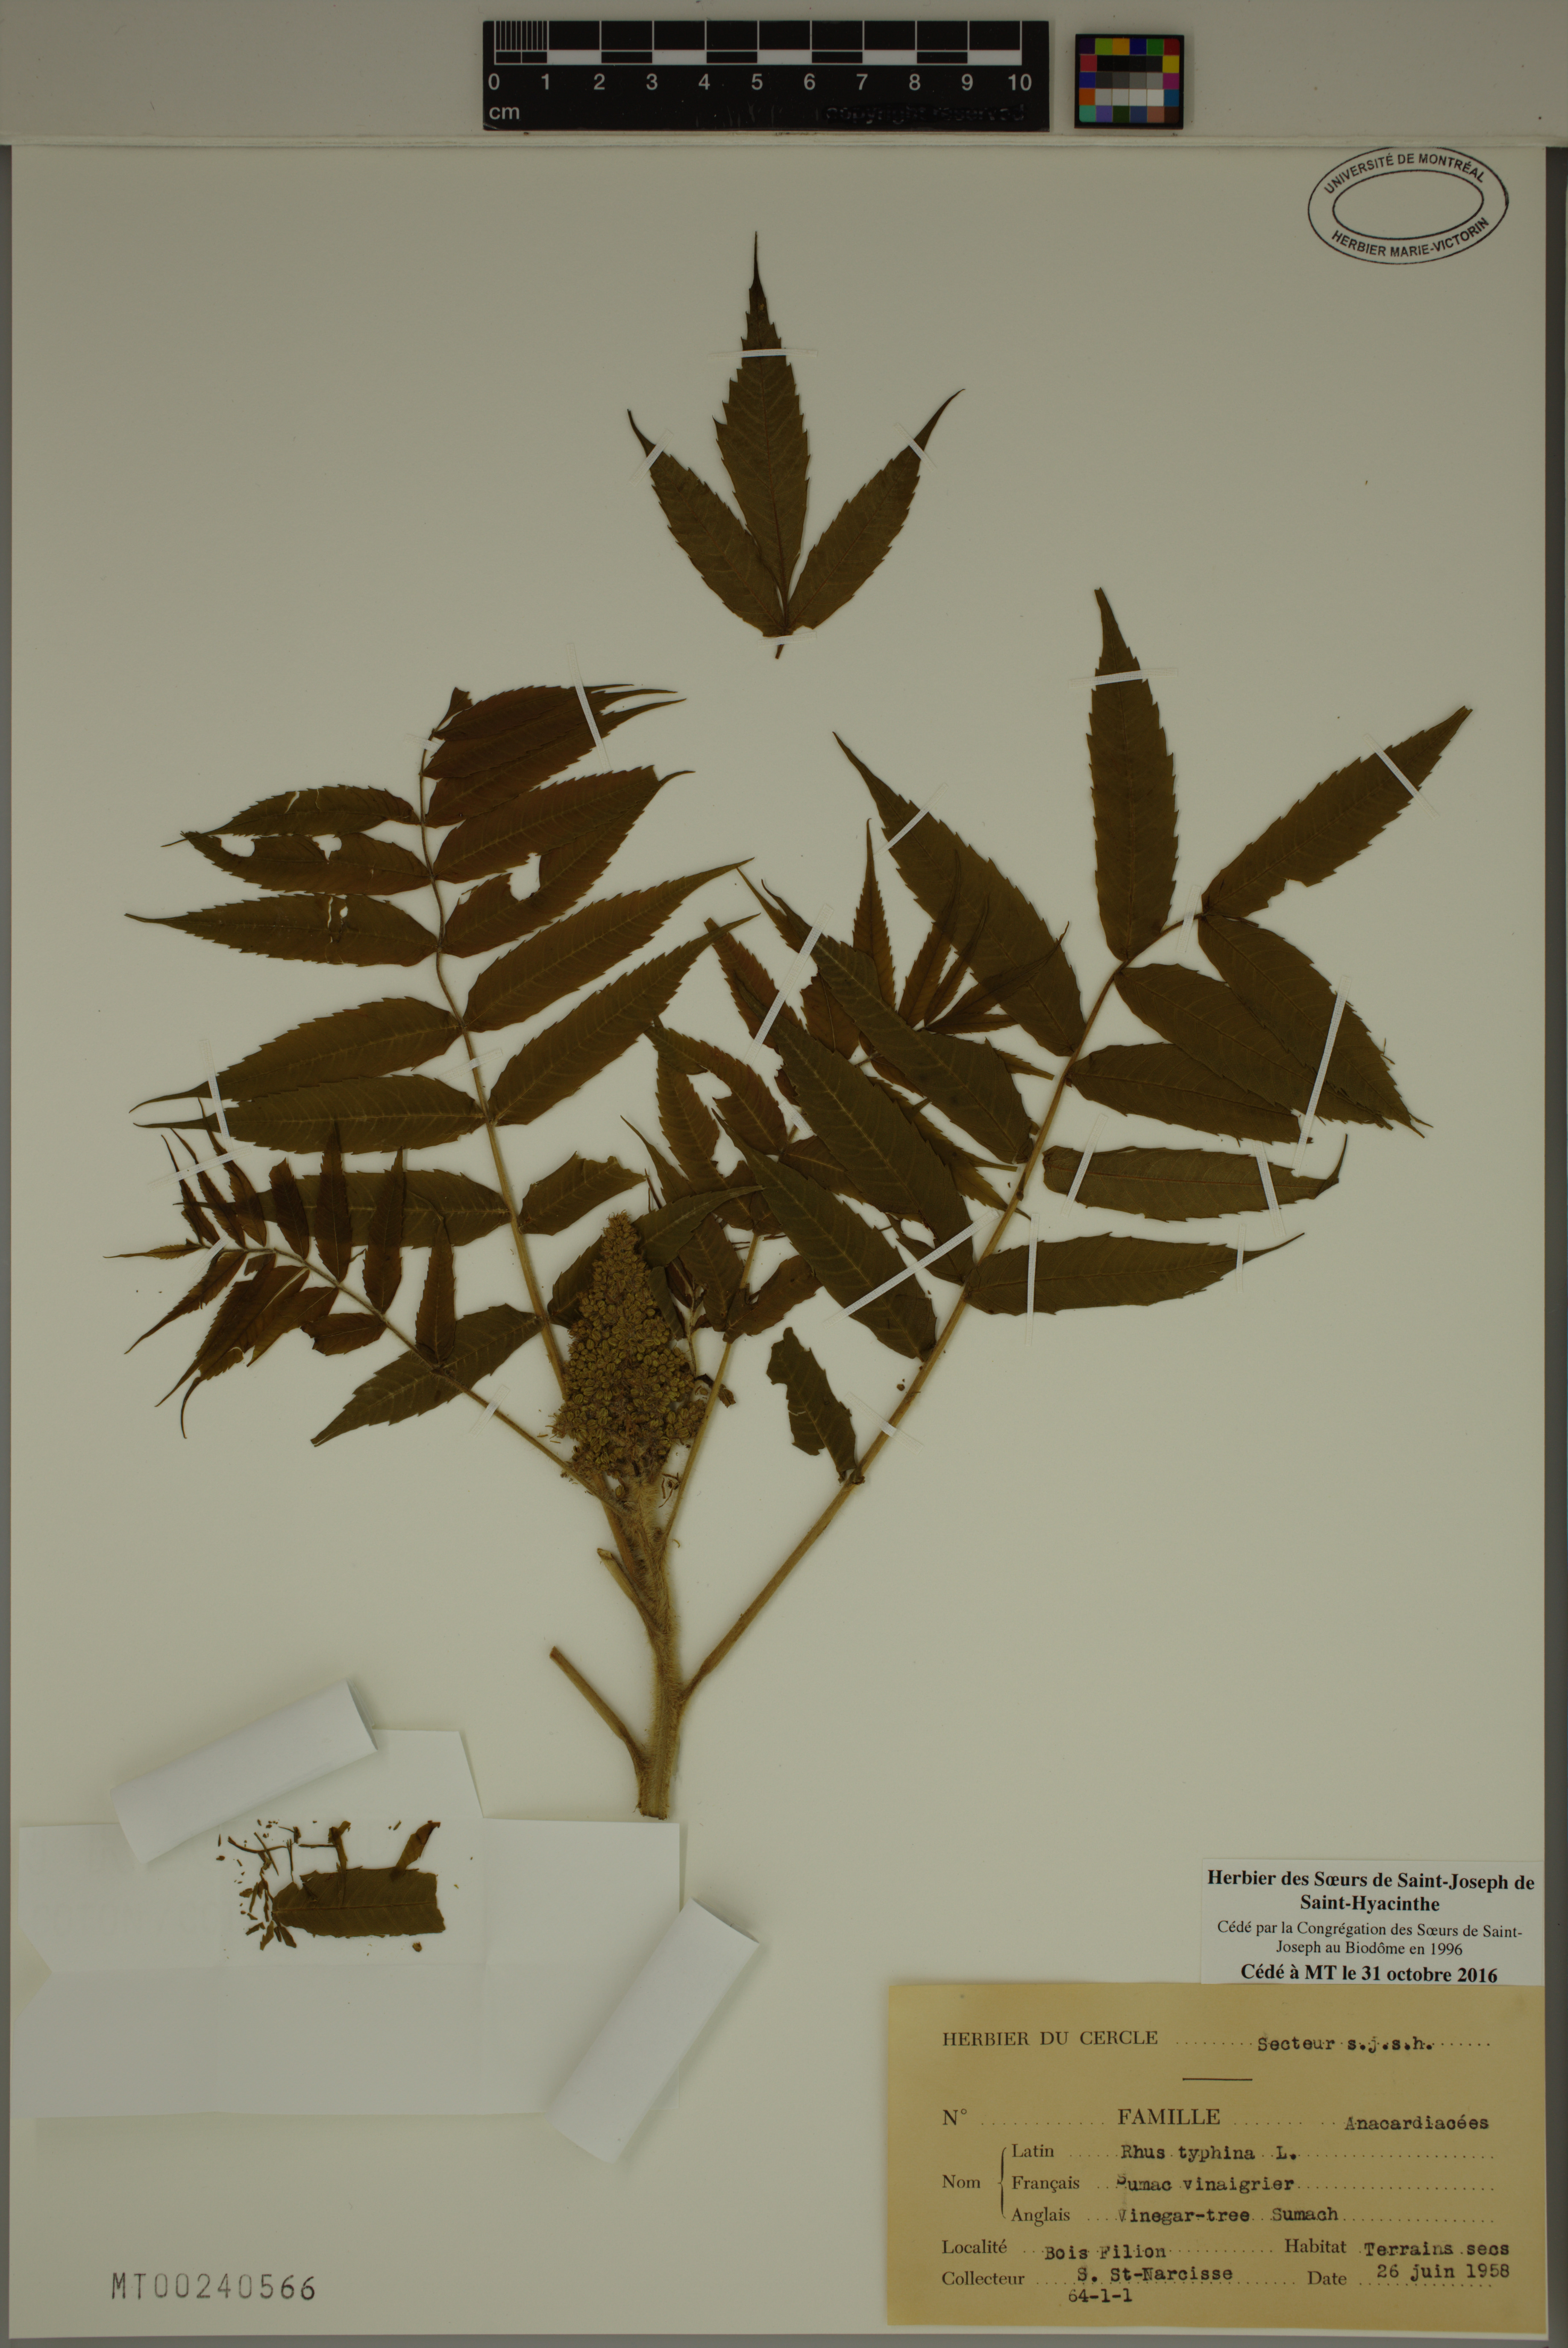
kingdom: Plantae
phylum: Tracheophyta
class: Magnoliopsida
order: Sapindales
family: Anacardiaceae
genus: Rhus
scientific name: Rhus typhina
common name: Staghorn sumac
